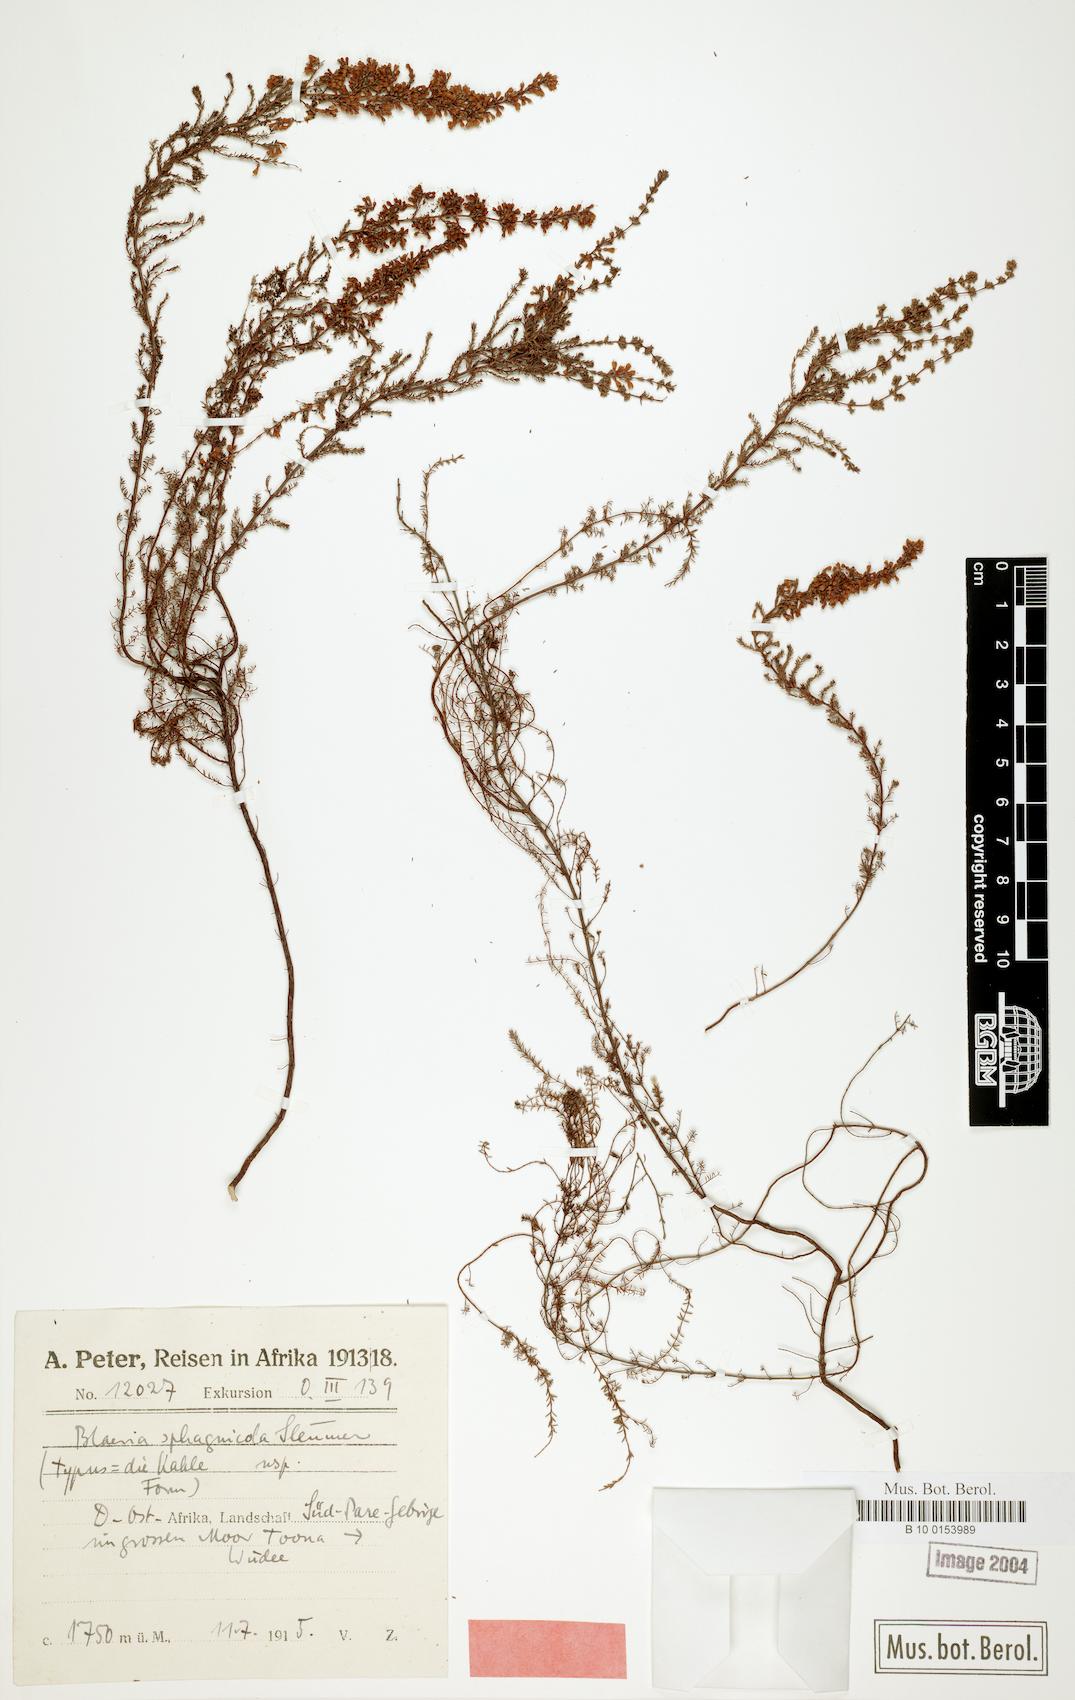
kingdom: Plantae
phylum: Tracheophyta
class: Magnoliopsida
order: Ericales
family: Ericaceae
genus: Erica
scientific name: Erica silvatica
